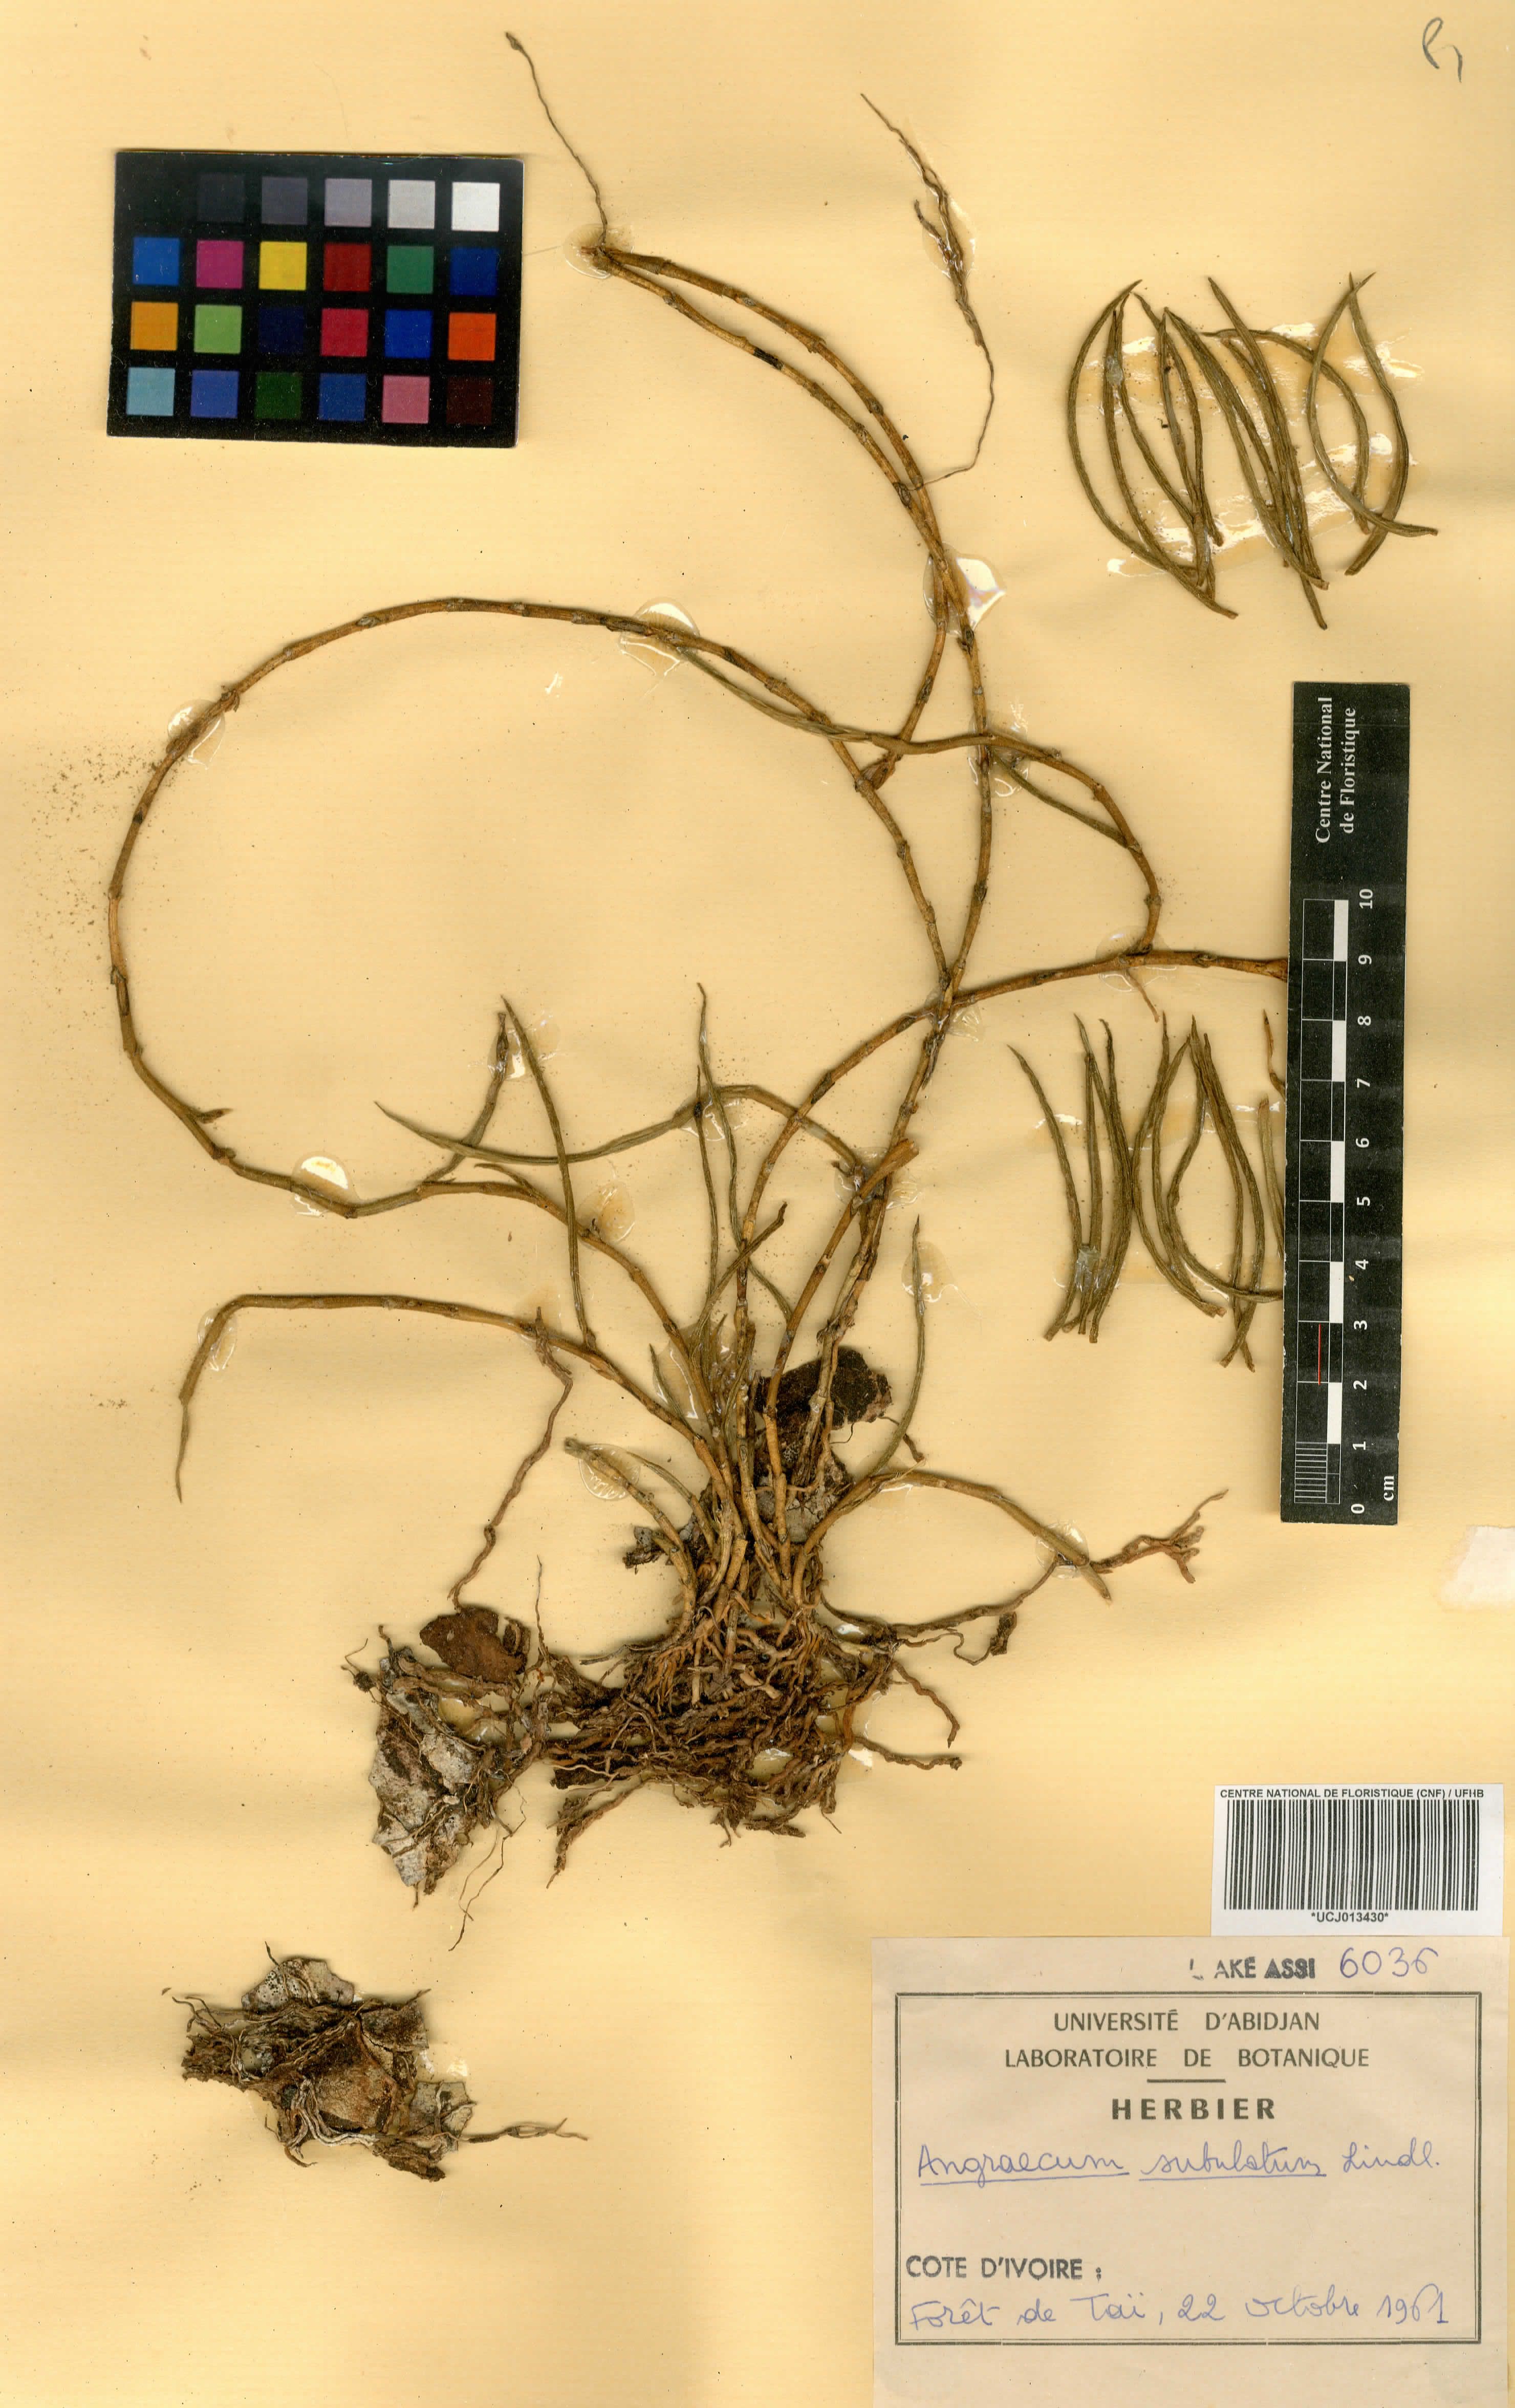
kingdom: Plantae
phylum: Tracheophyta
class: Liliopsida
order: Asparagales
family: Orchidaceae
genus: Afropectinariella
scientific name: Afropectinariella subulata
